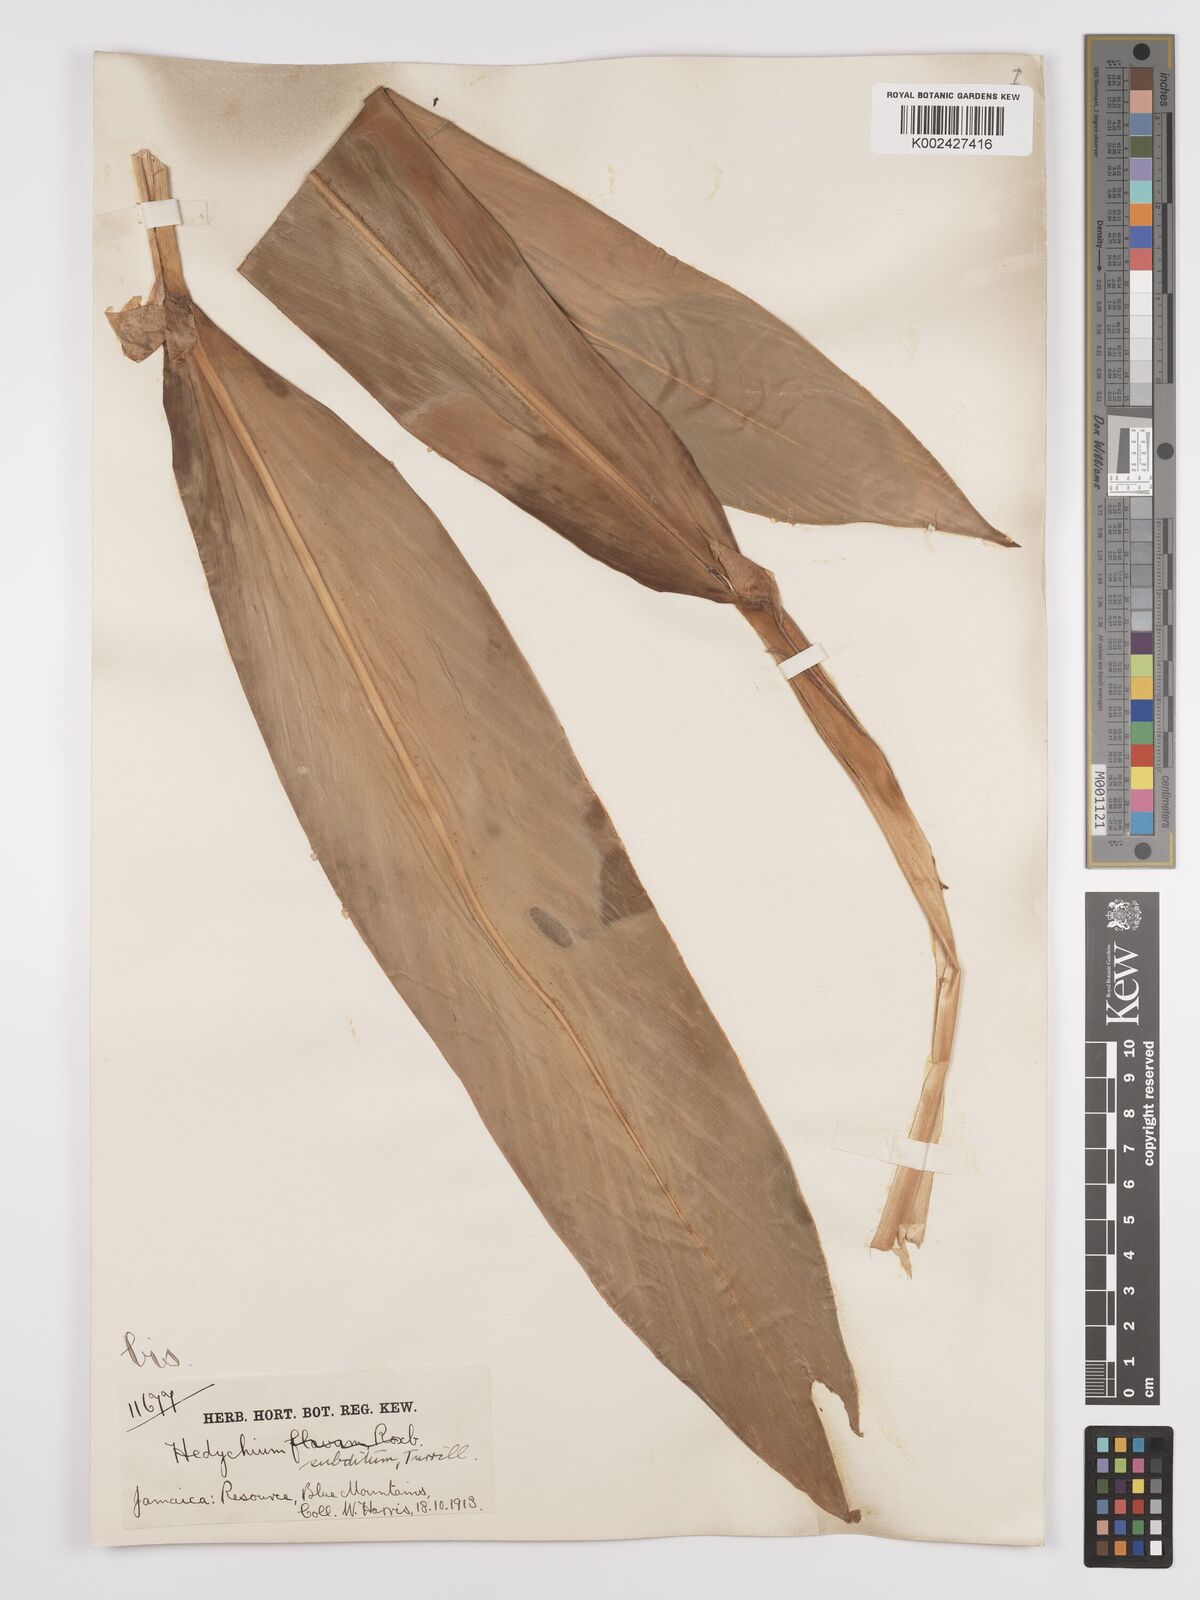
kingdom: Plantae
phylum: Tracheophyta
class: Liliopsida
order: Zingiberales
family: Zingiberaceae
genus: Hedychium
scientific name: Hedychium flavescens
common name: Yellow ginger
